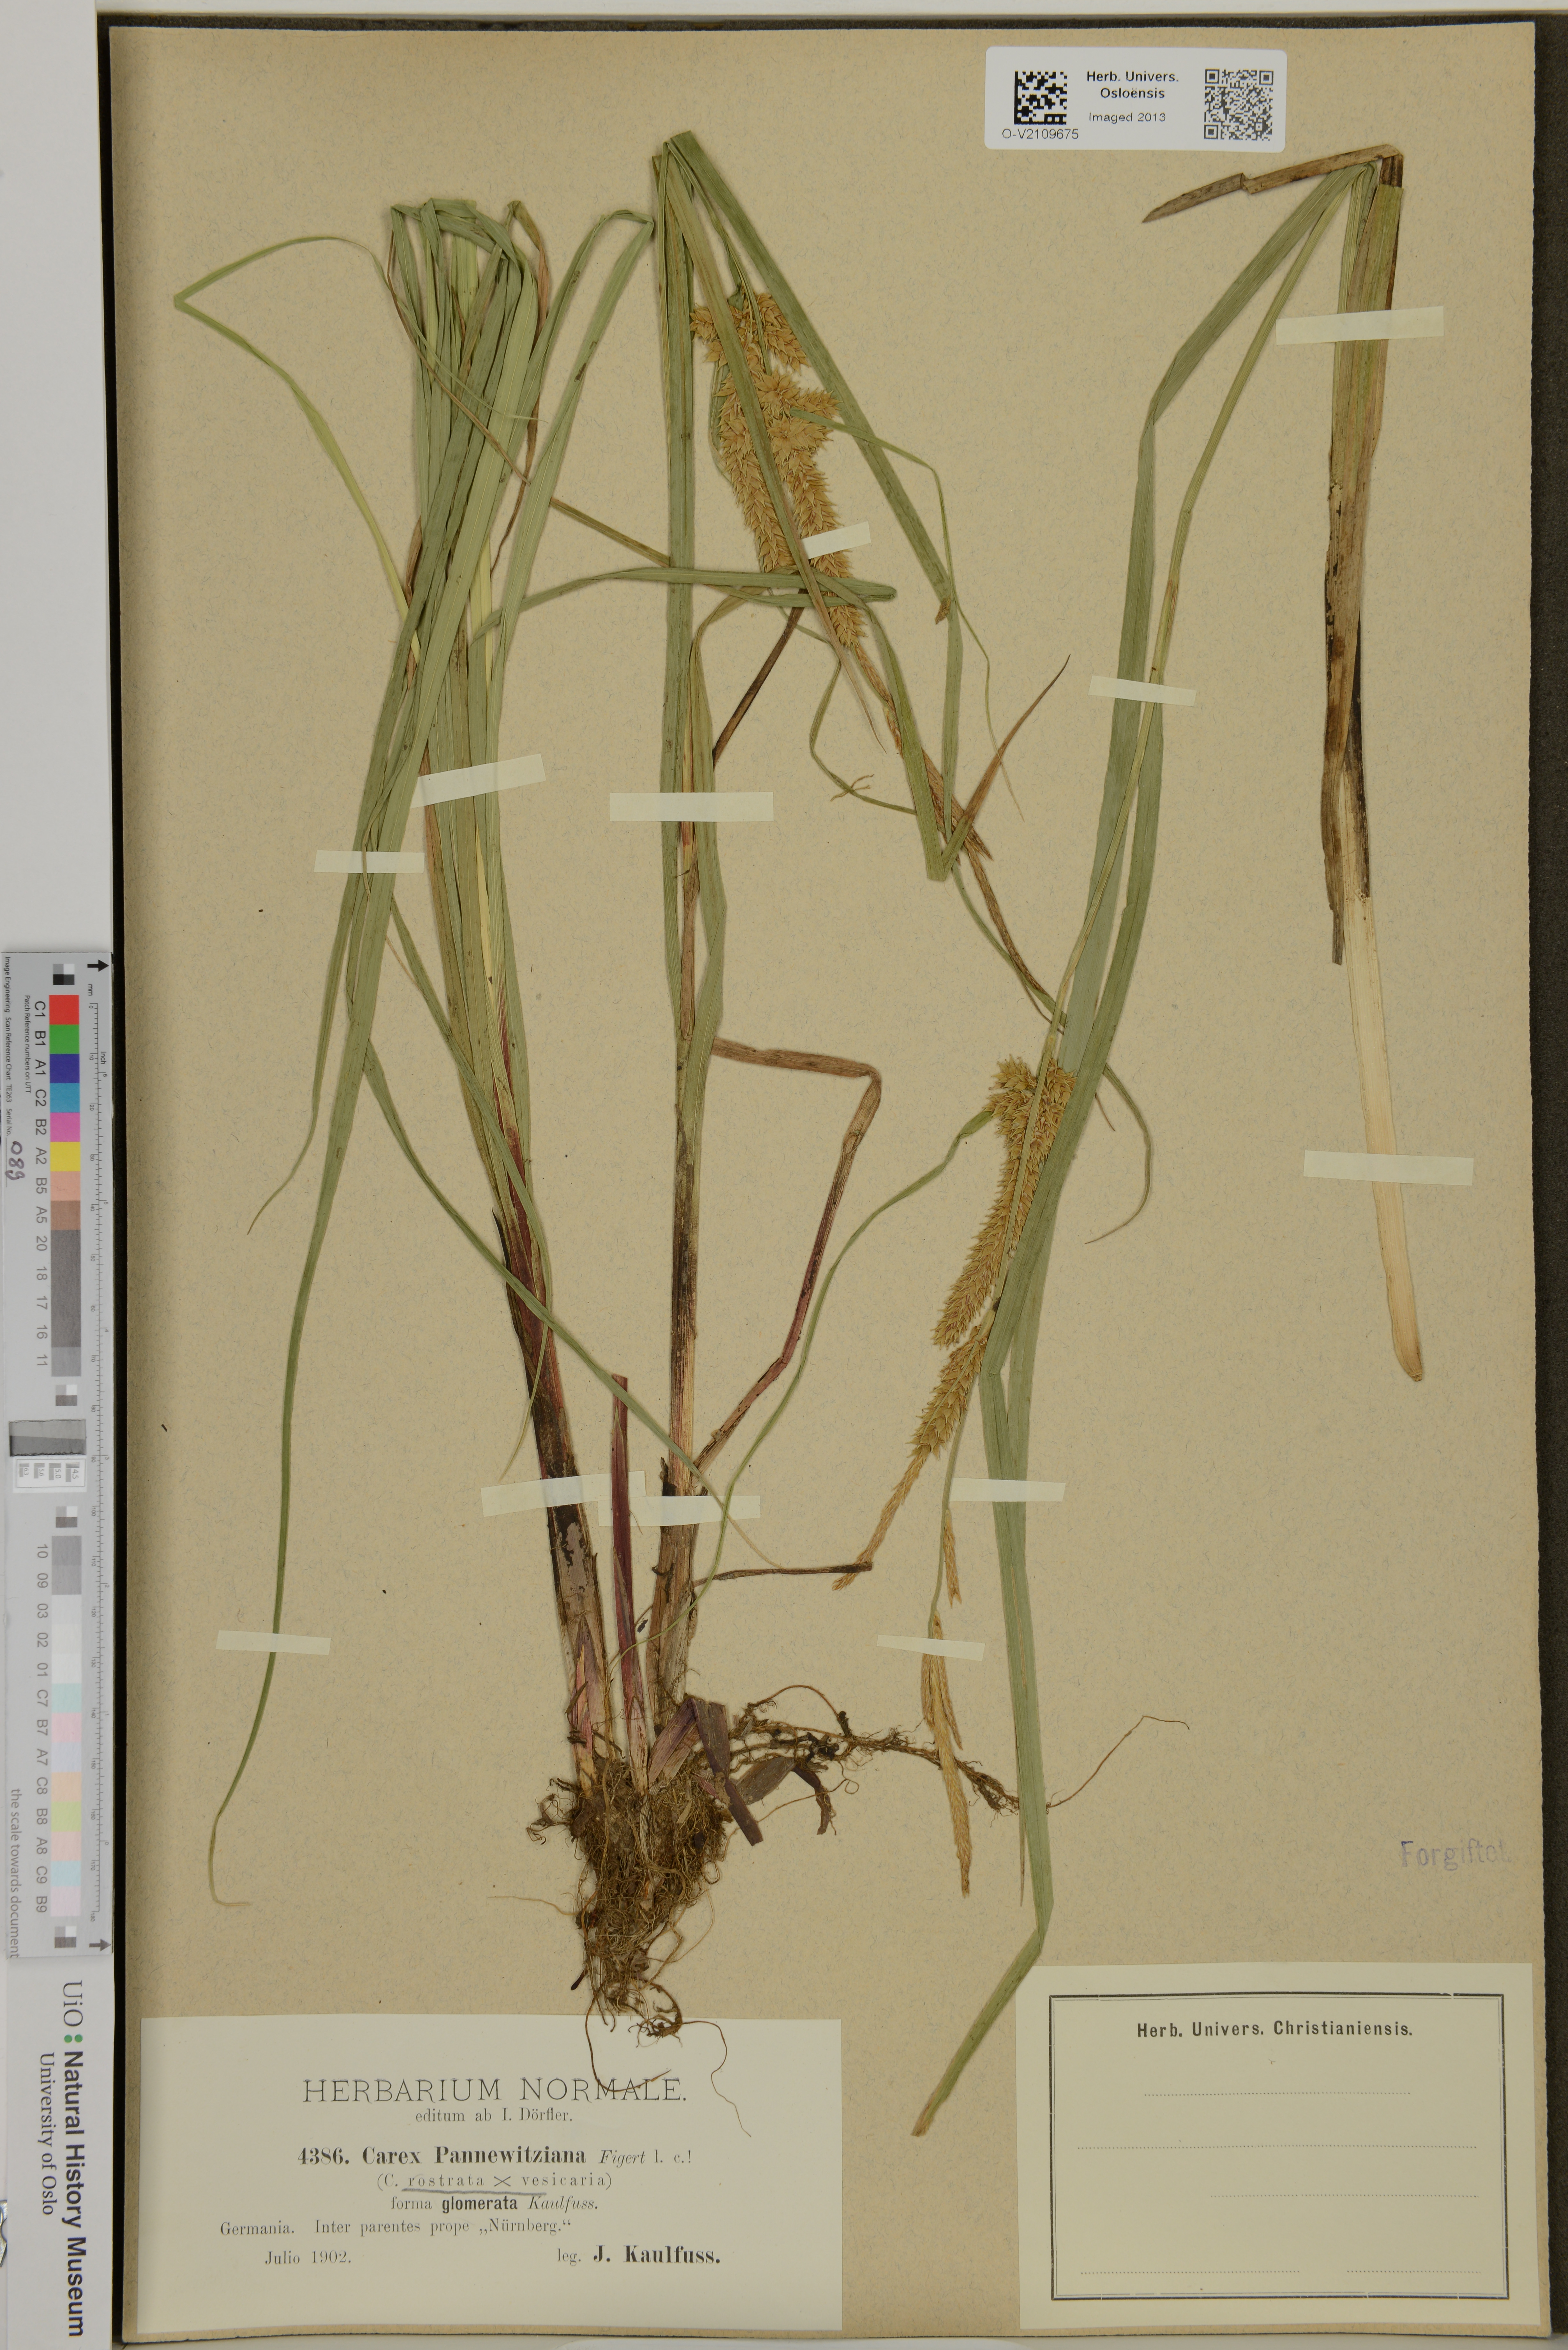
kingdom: Plantae
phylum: Tracheophyta
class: Liliopsida
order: Poales
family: Cyperaceae
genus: Carex
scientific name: Carex involuta
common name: Pannewitz's sedge
